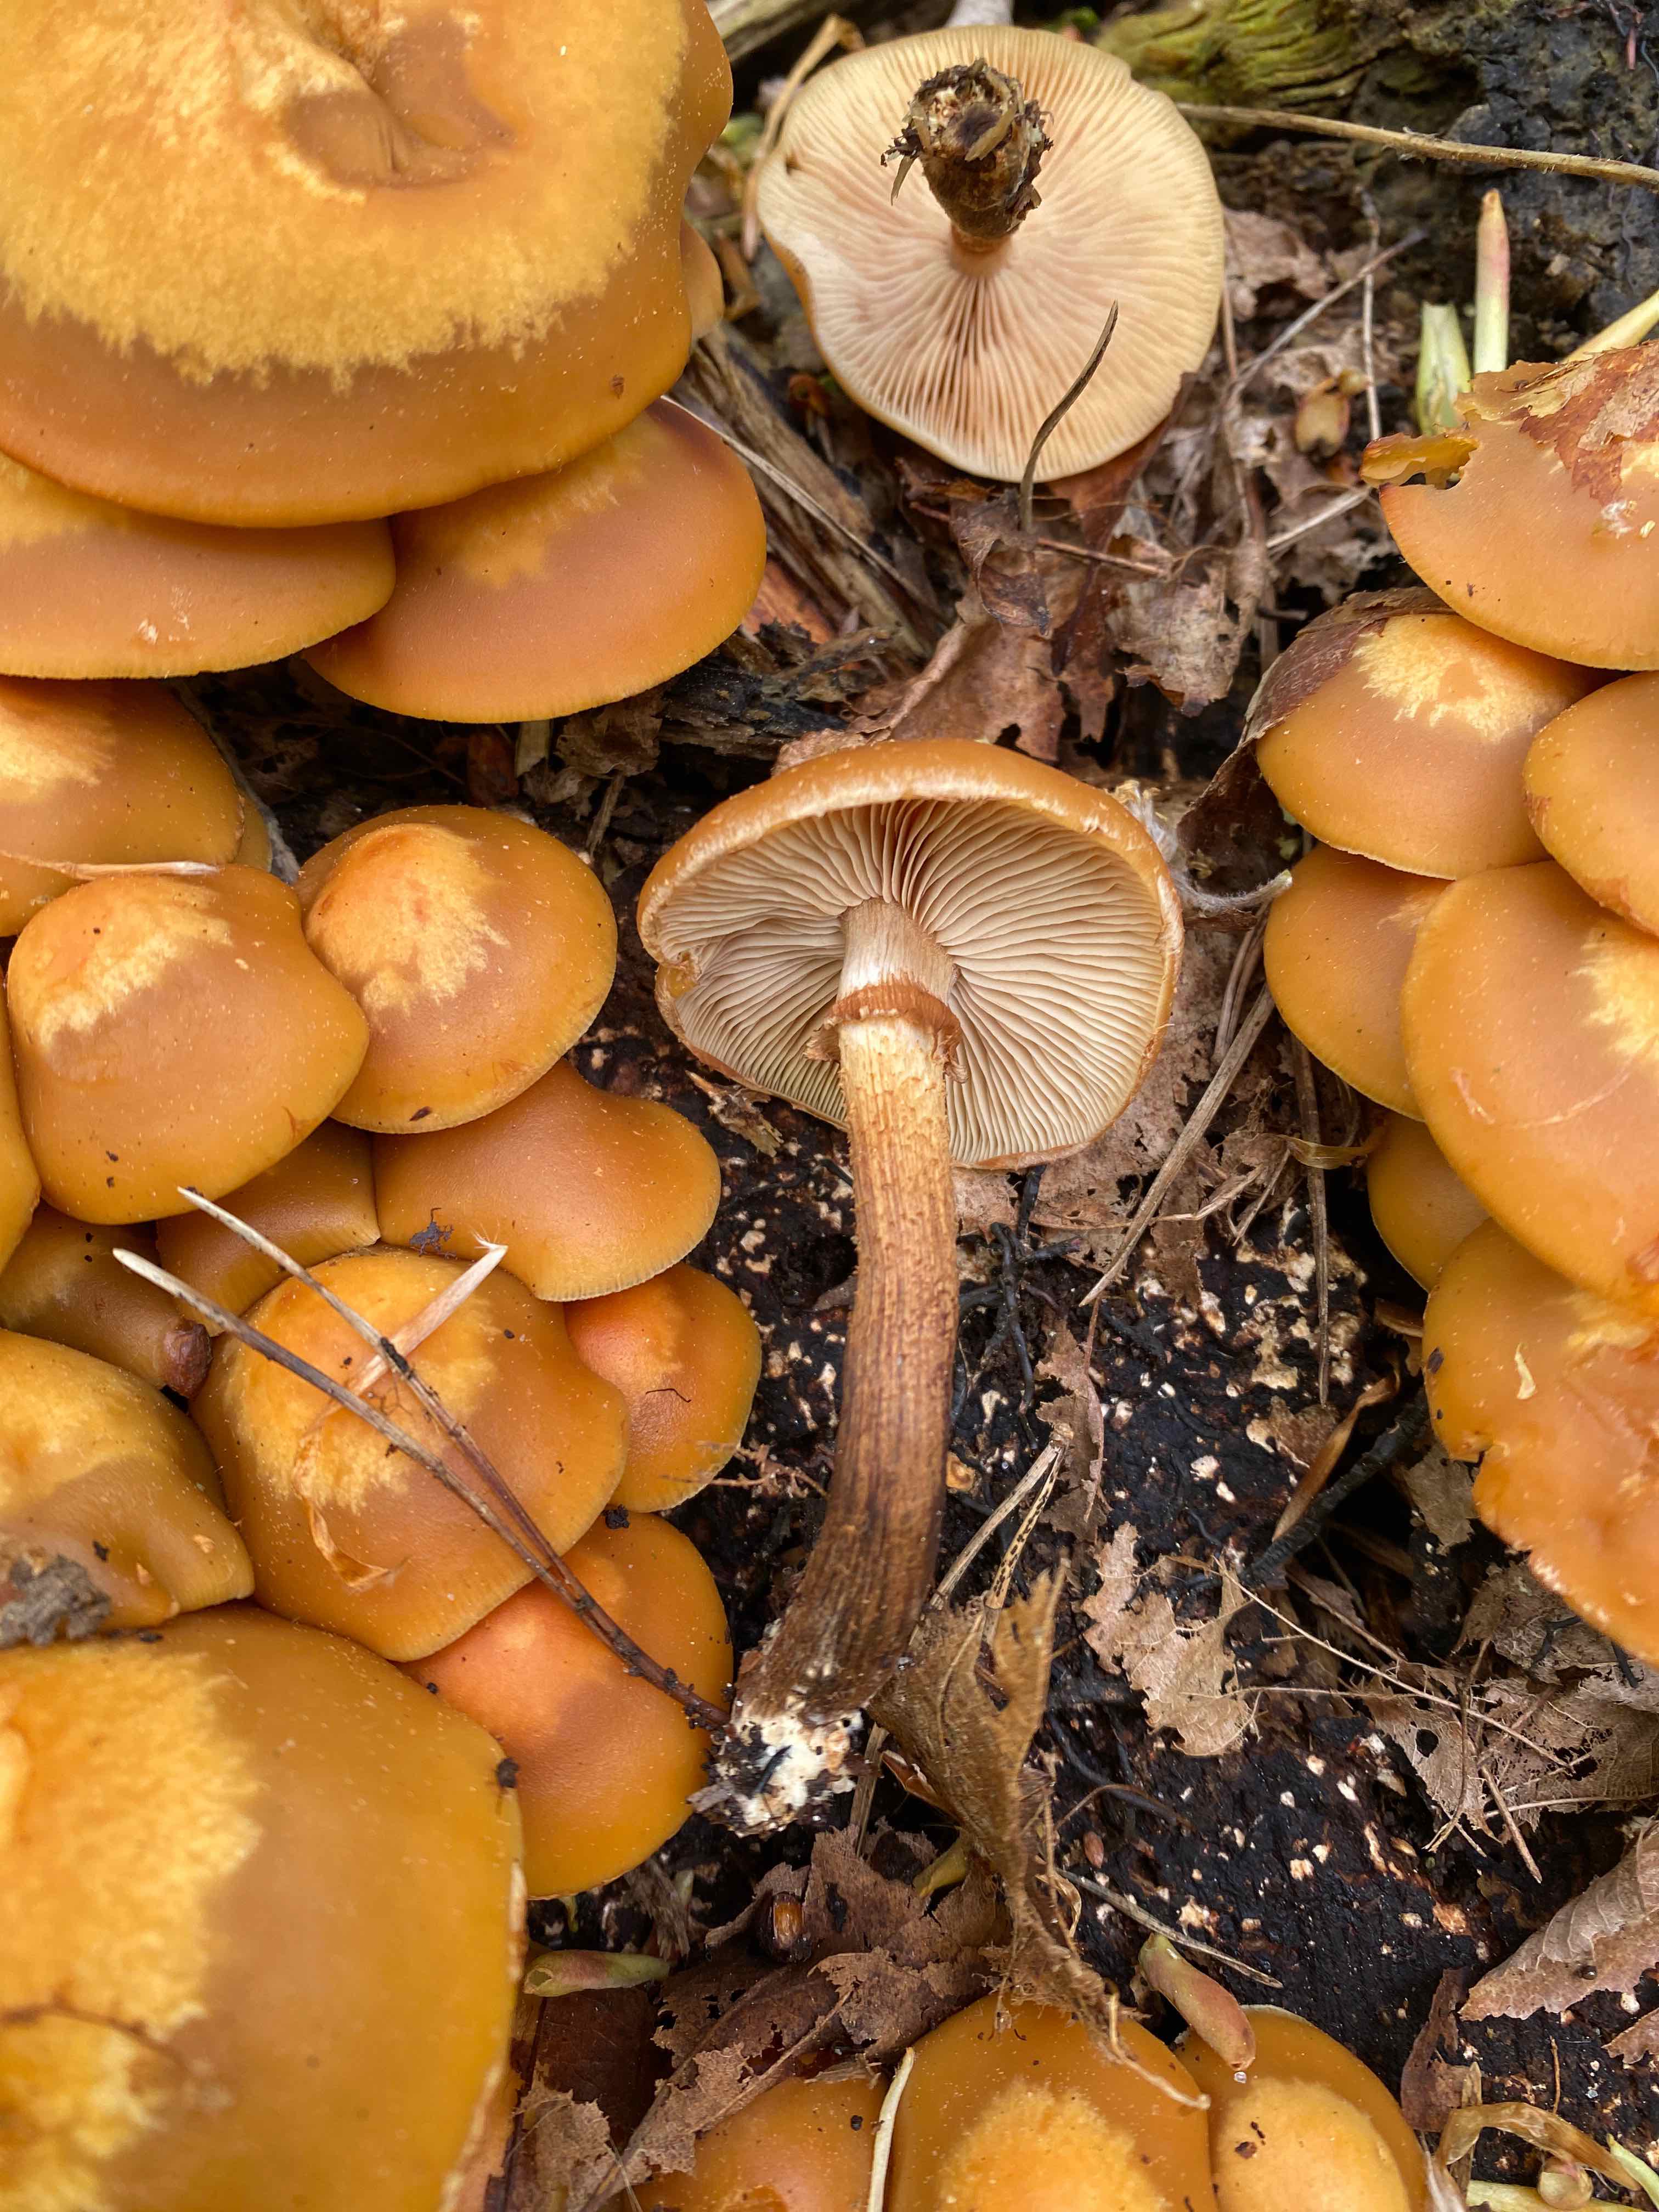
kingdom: Fungi
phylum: Basidiomycota
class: Agaricomycetes
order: Agaricales
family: Strophariaceae
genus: Kuehneromyces
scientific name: Kuehneromyces mutabilis
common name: foranderlig skælhat
